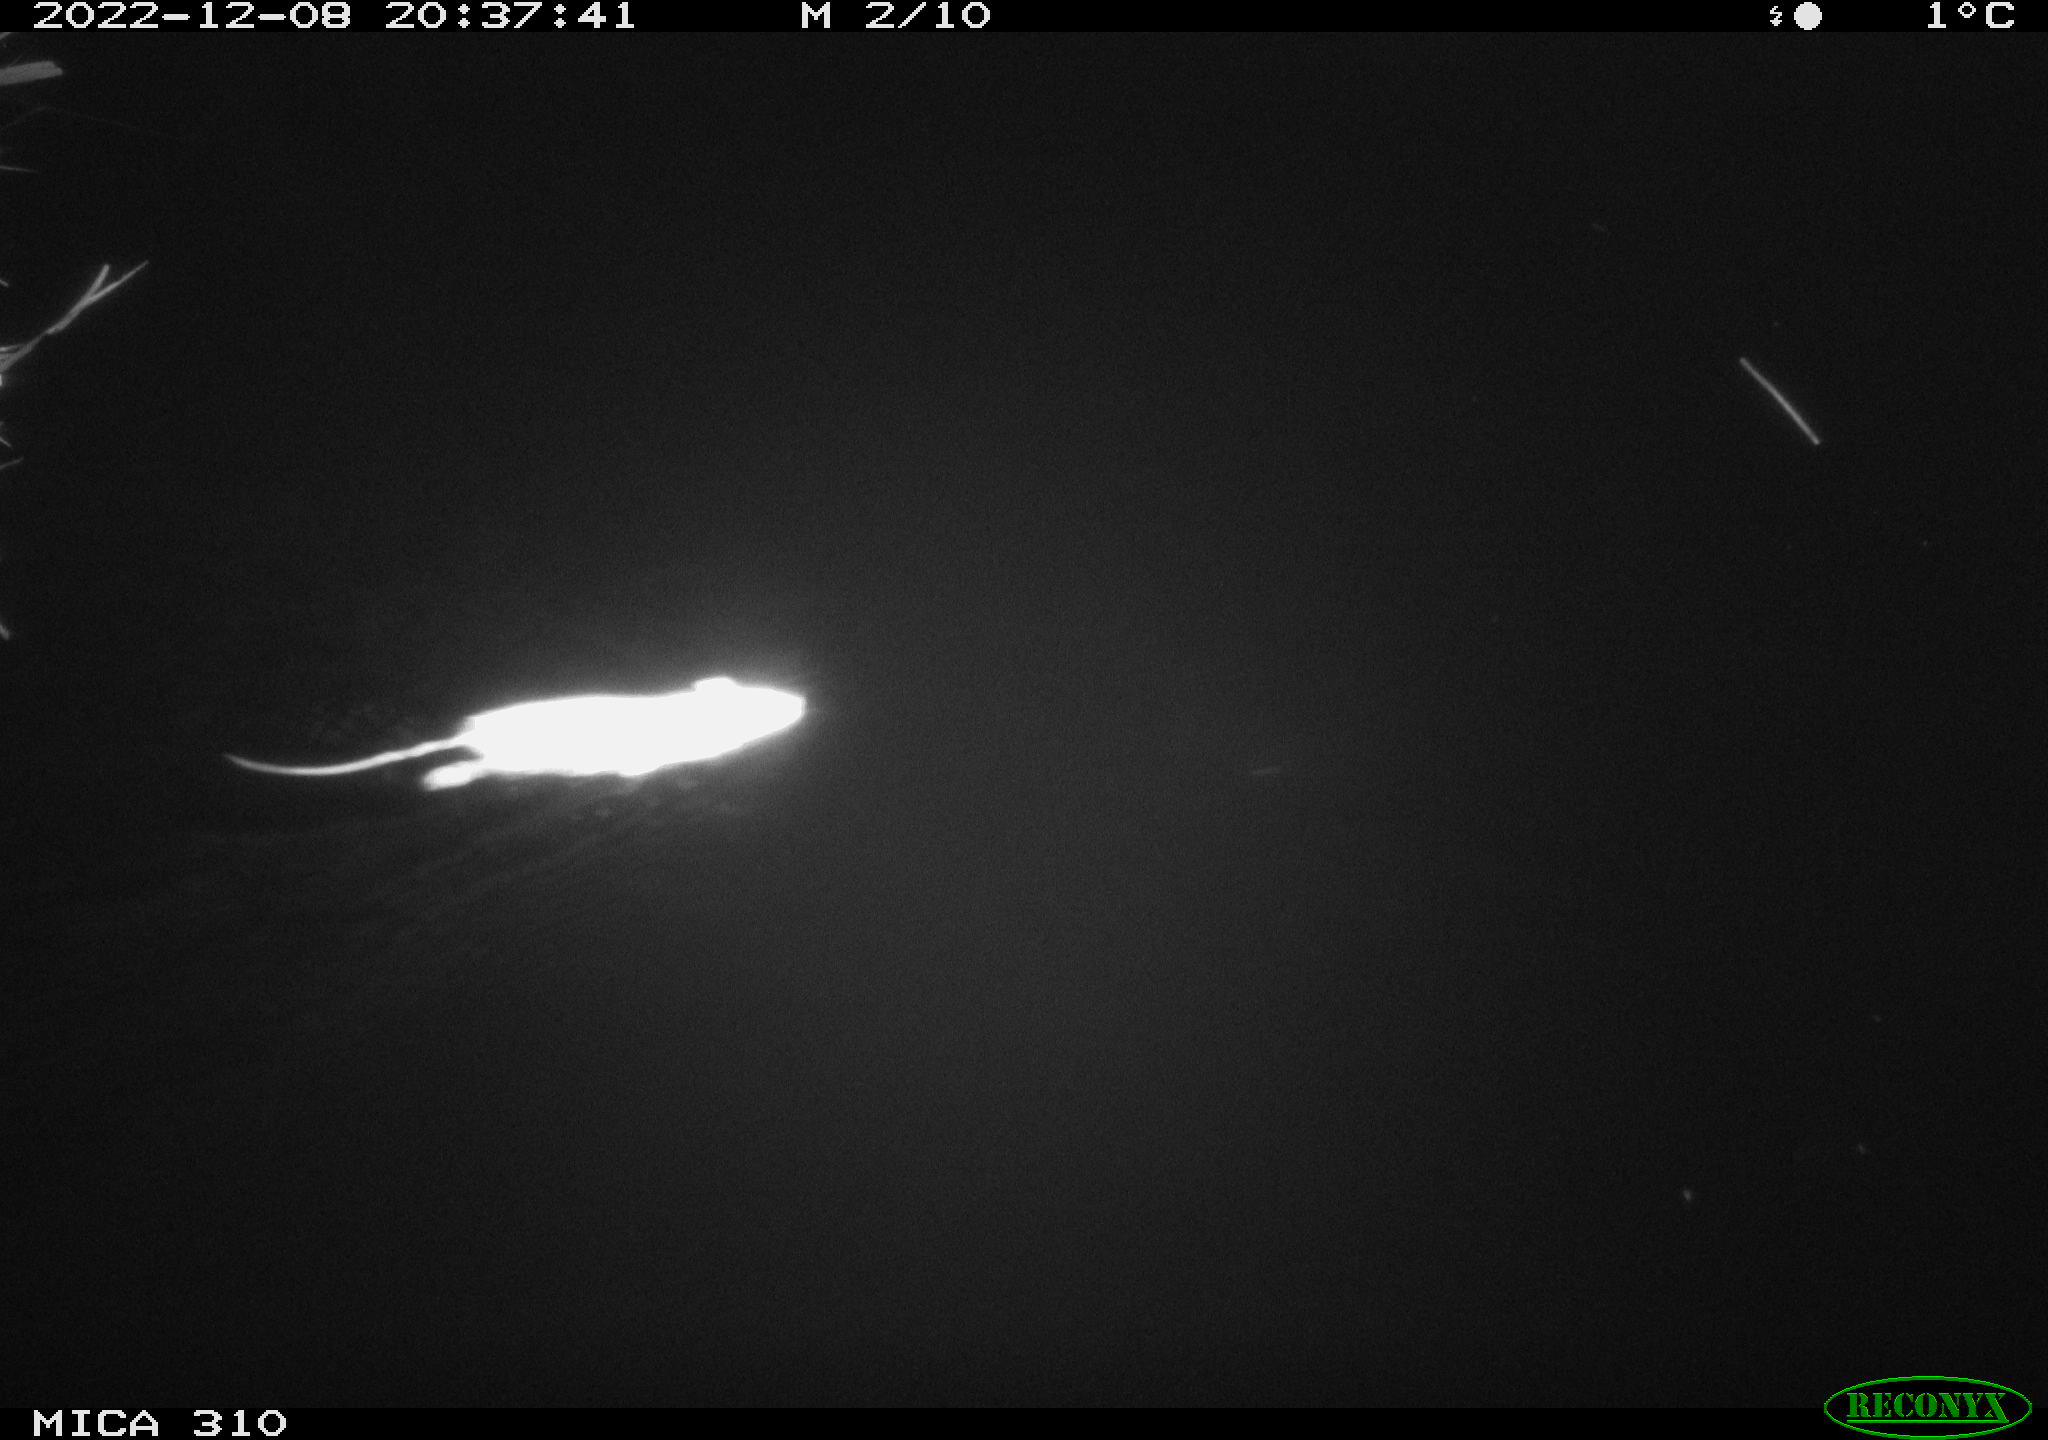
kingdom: Animalia
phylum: Chordata
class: Mammalia
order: Rodentia
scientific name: Rodentia
